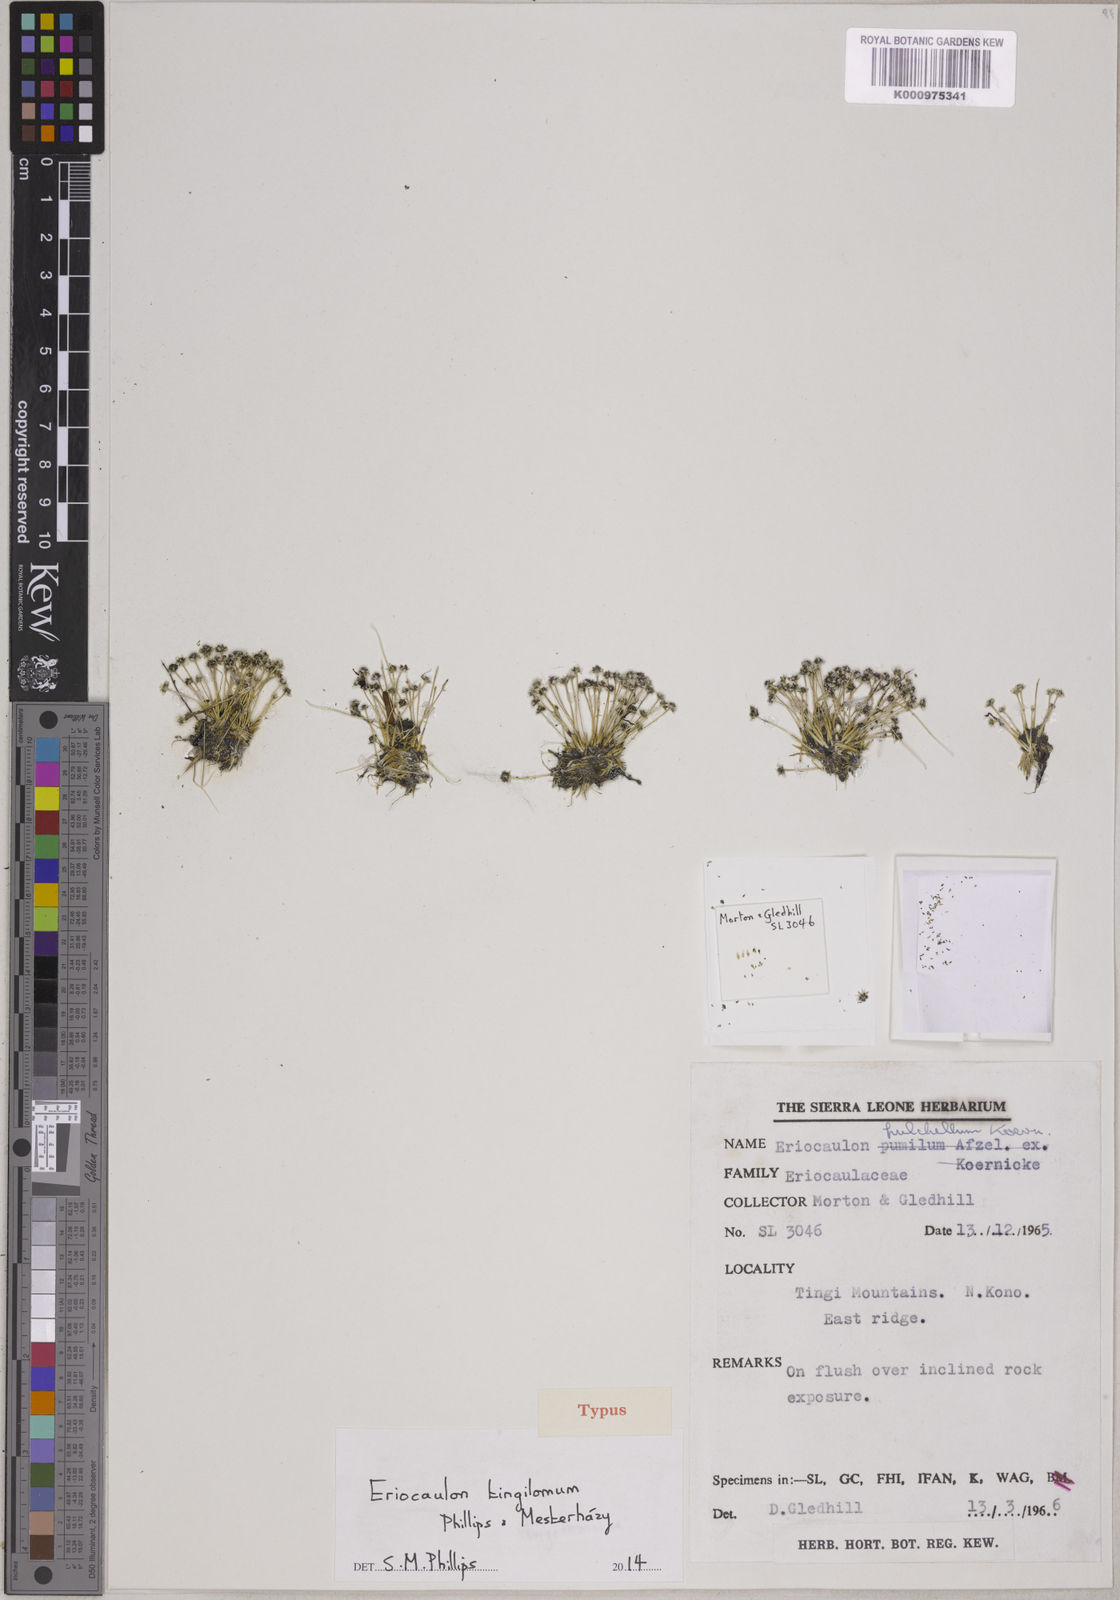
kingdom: Plantae
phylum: Tracheophyta
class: Liliopsida
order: Poales
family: Eriocaulaceae
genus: Eriocaulon
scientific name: Eriocaulon
